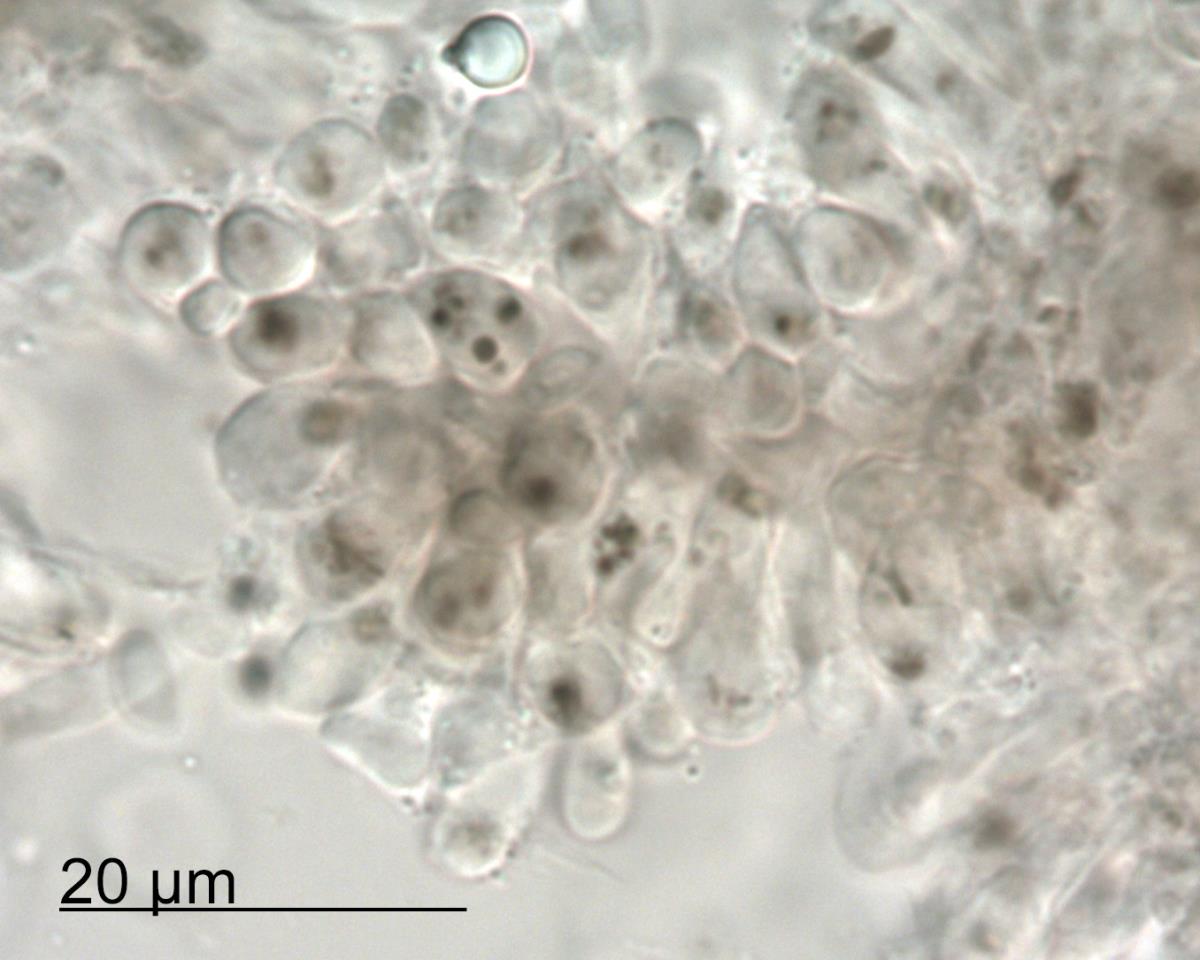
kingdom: Fungi
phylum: Basidiomycota
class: Agaricomycetes
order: Agaricales
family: Mycenaceae
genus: Mycena
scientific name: Mycena rubroglobulosa
